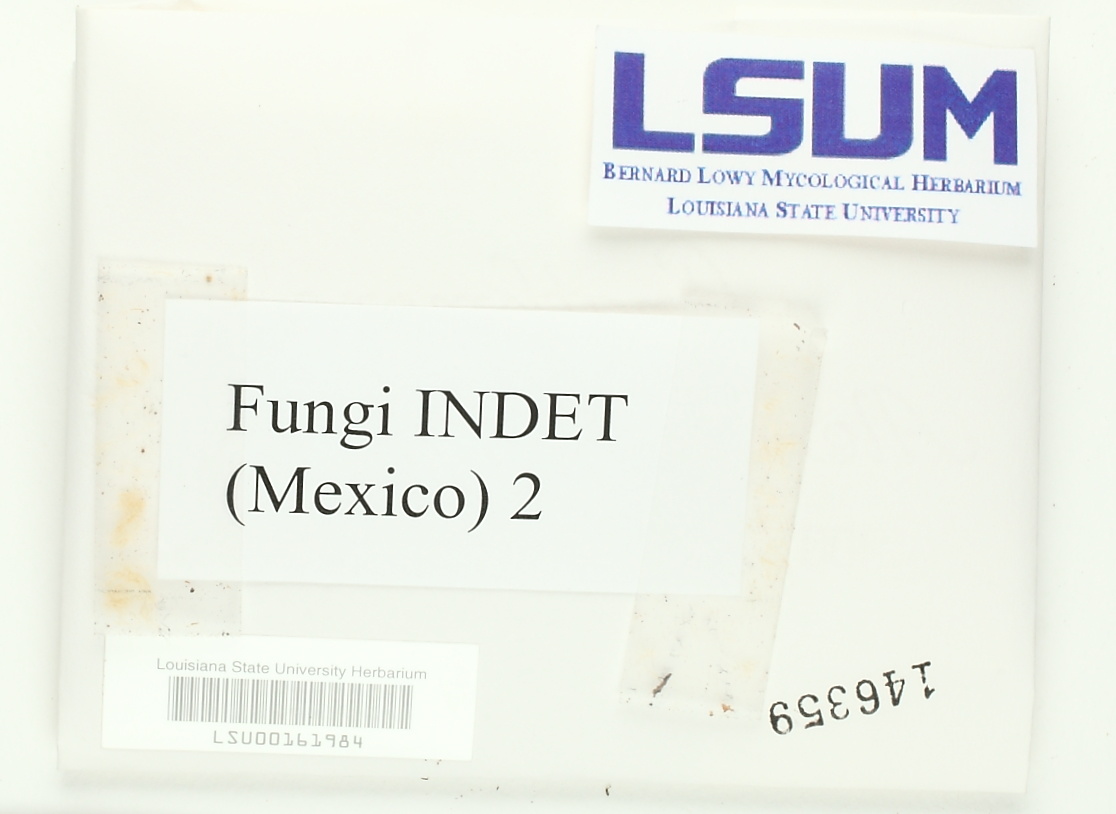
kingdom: Fungi
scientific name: Fungi
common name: Fungi
